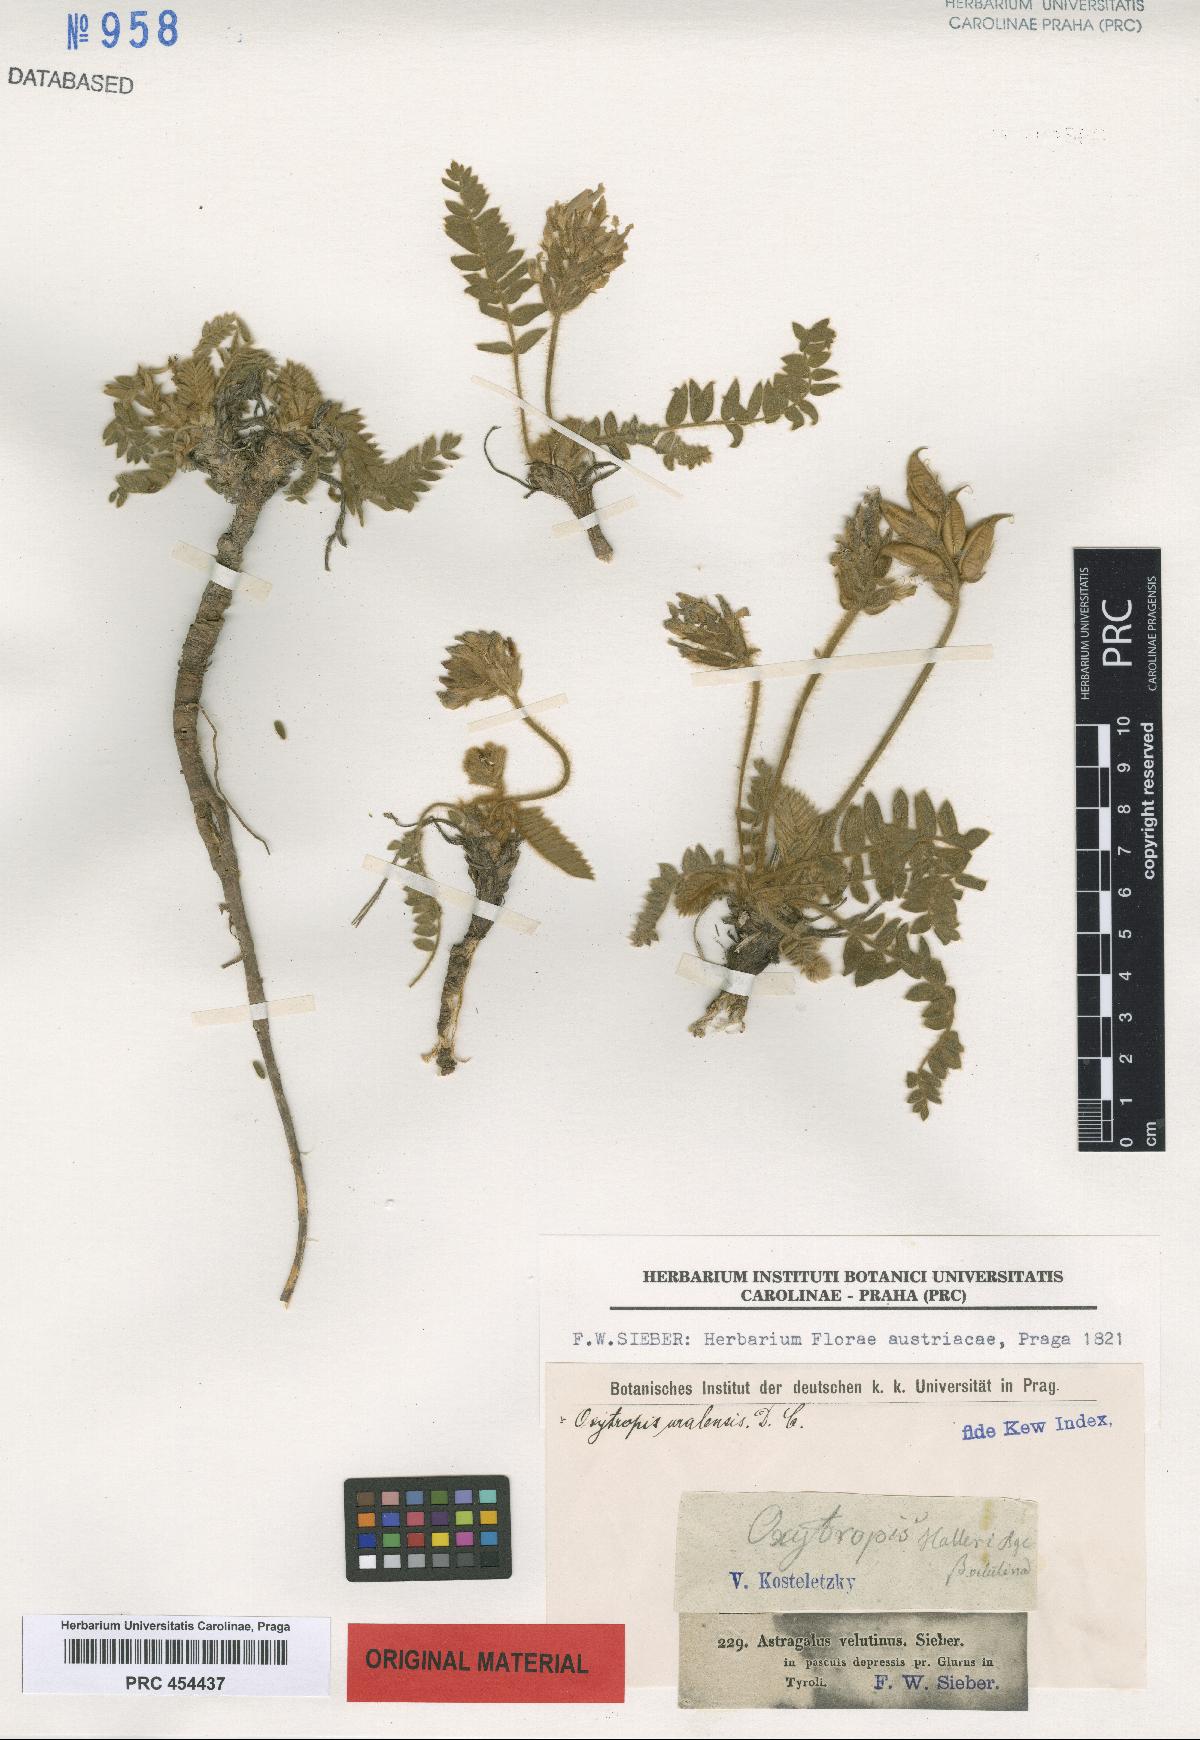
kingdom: Plantae
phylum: Tracheophyta
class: Magnoliopsida
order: Fabales
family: Fabaceae
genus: Oxytropis
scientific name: Oxytropis halleri
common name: Purple oxytropis
